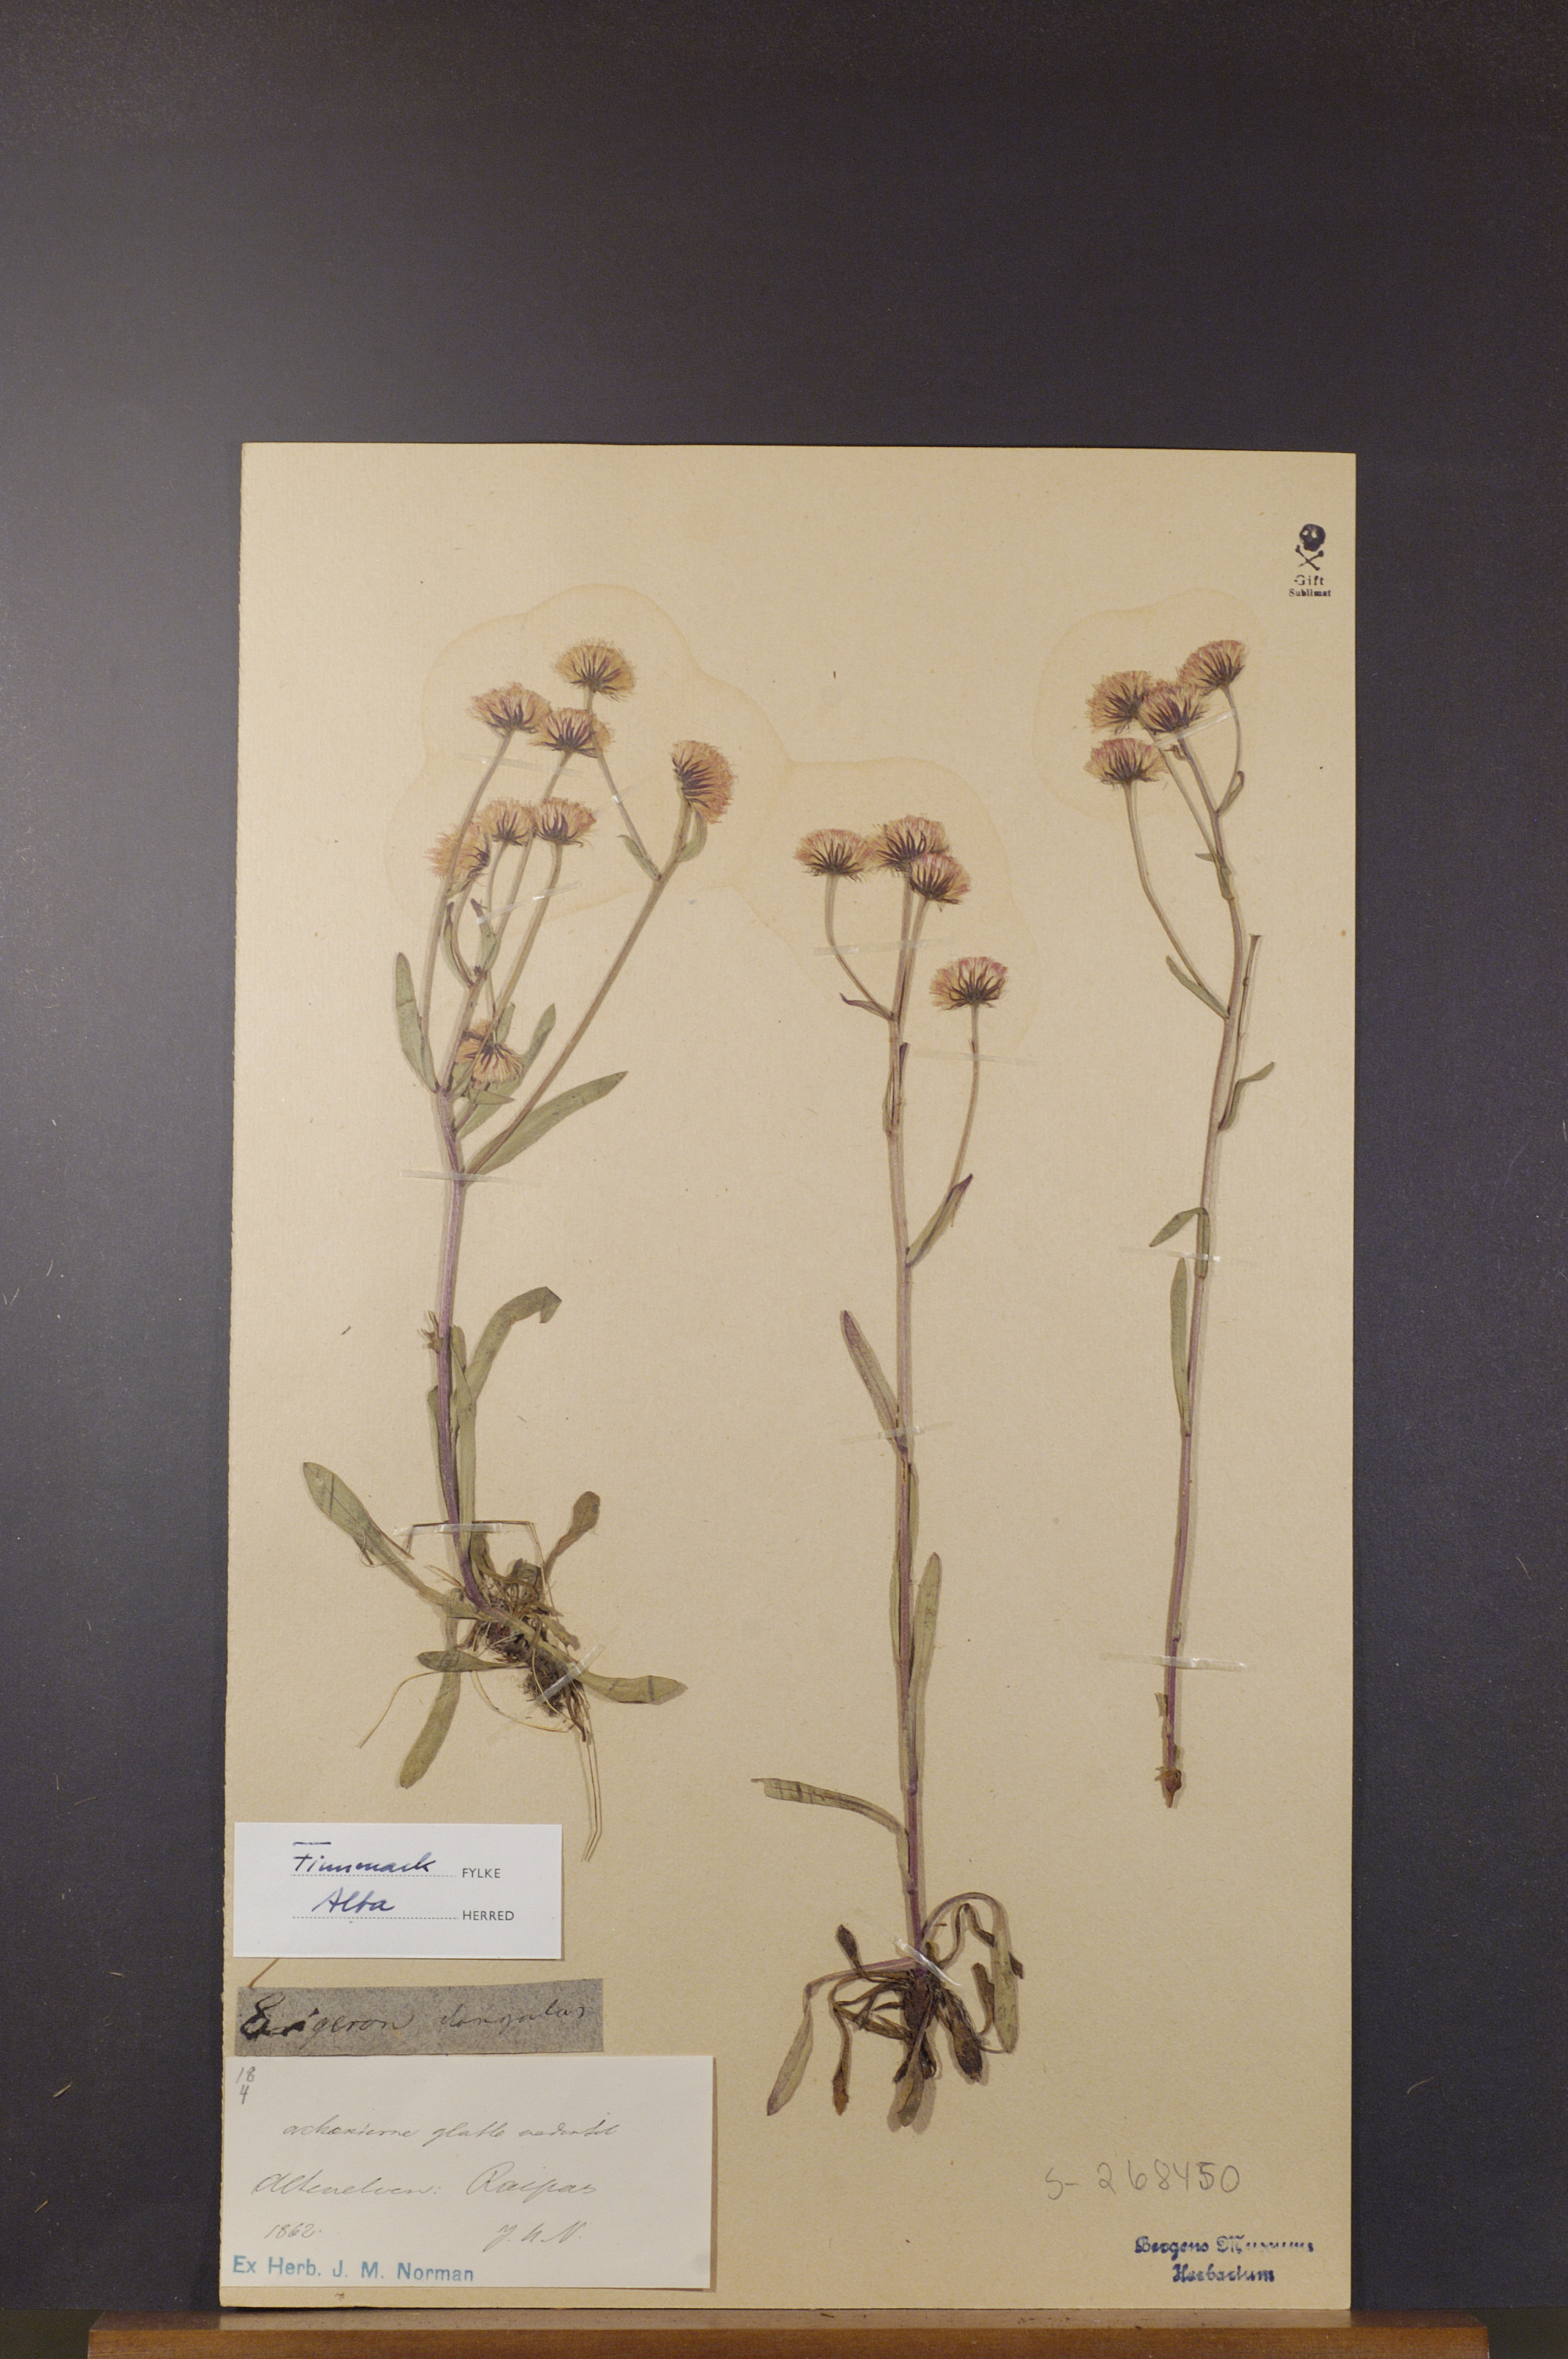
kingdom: Plantae
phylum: Tracheophyta
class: Magnoliopsida
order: Asterales
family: Asteraceae
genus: Erigeron
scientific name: Erigeron politus
